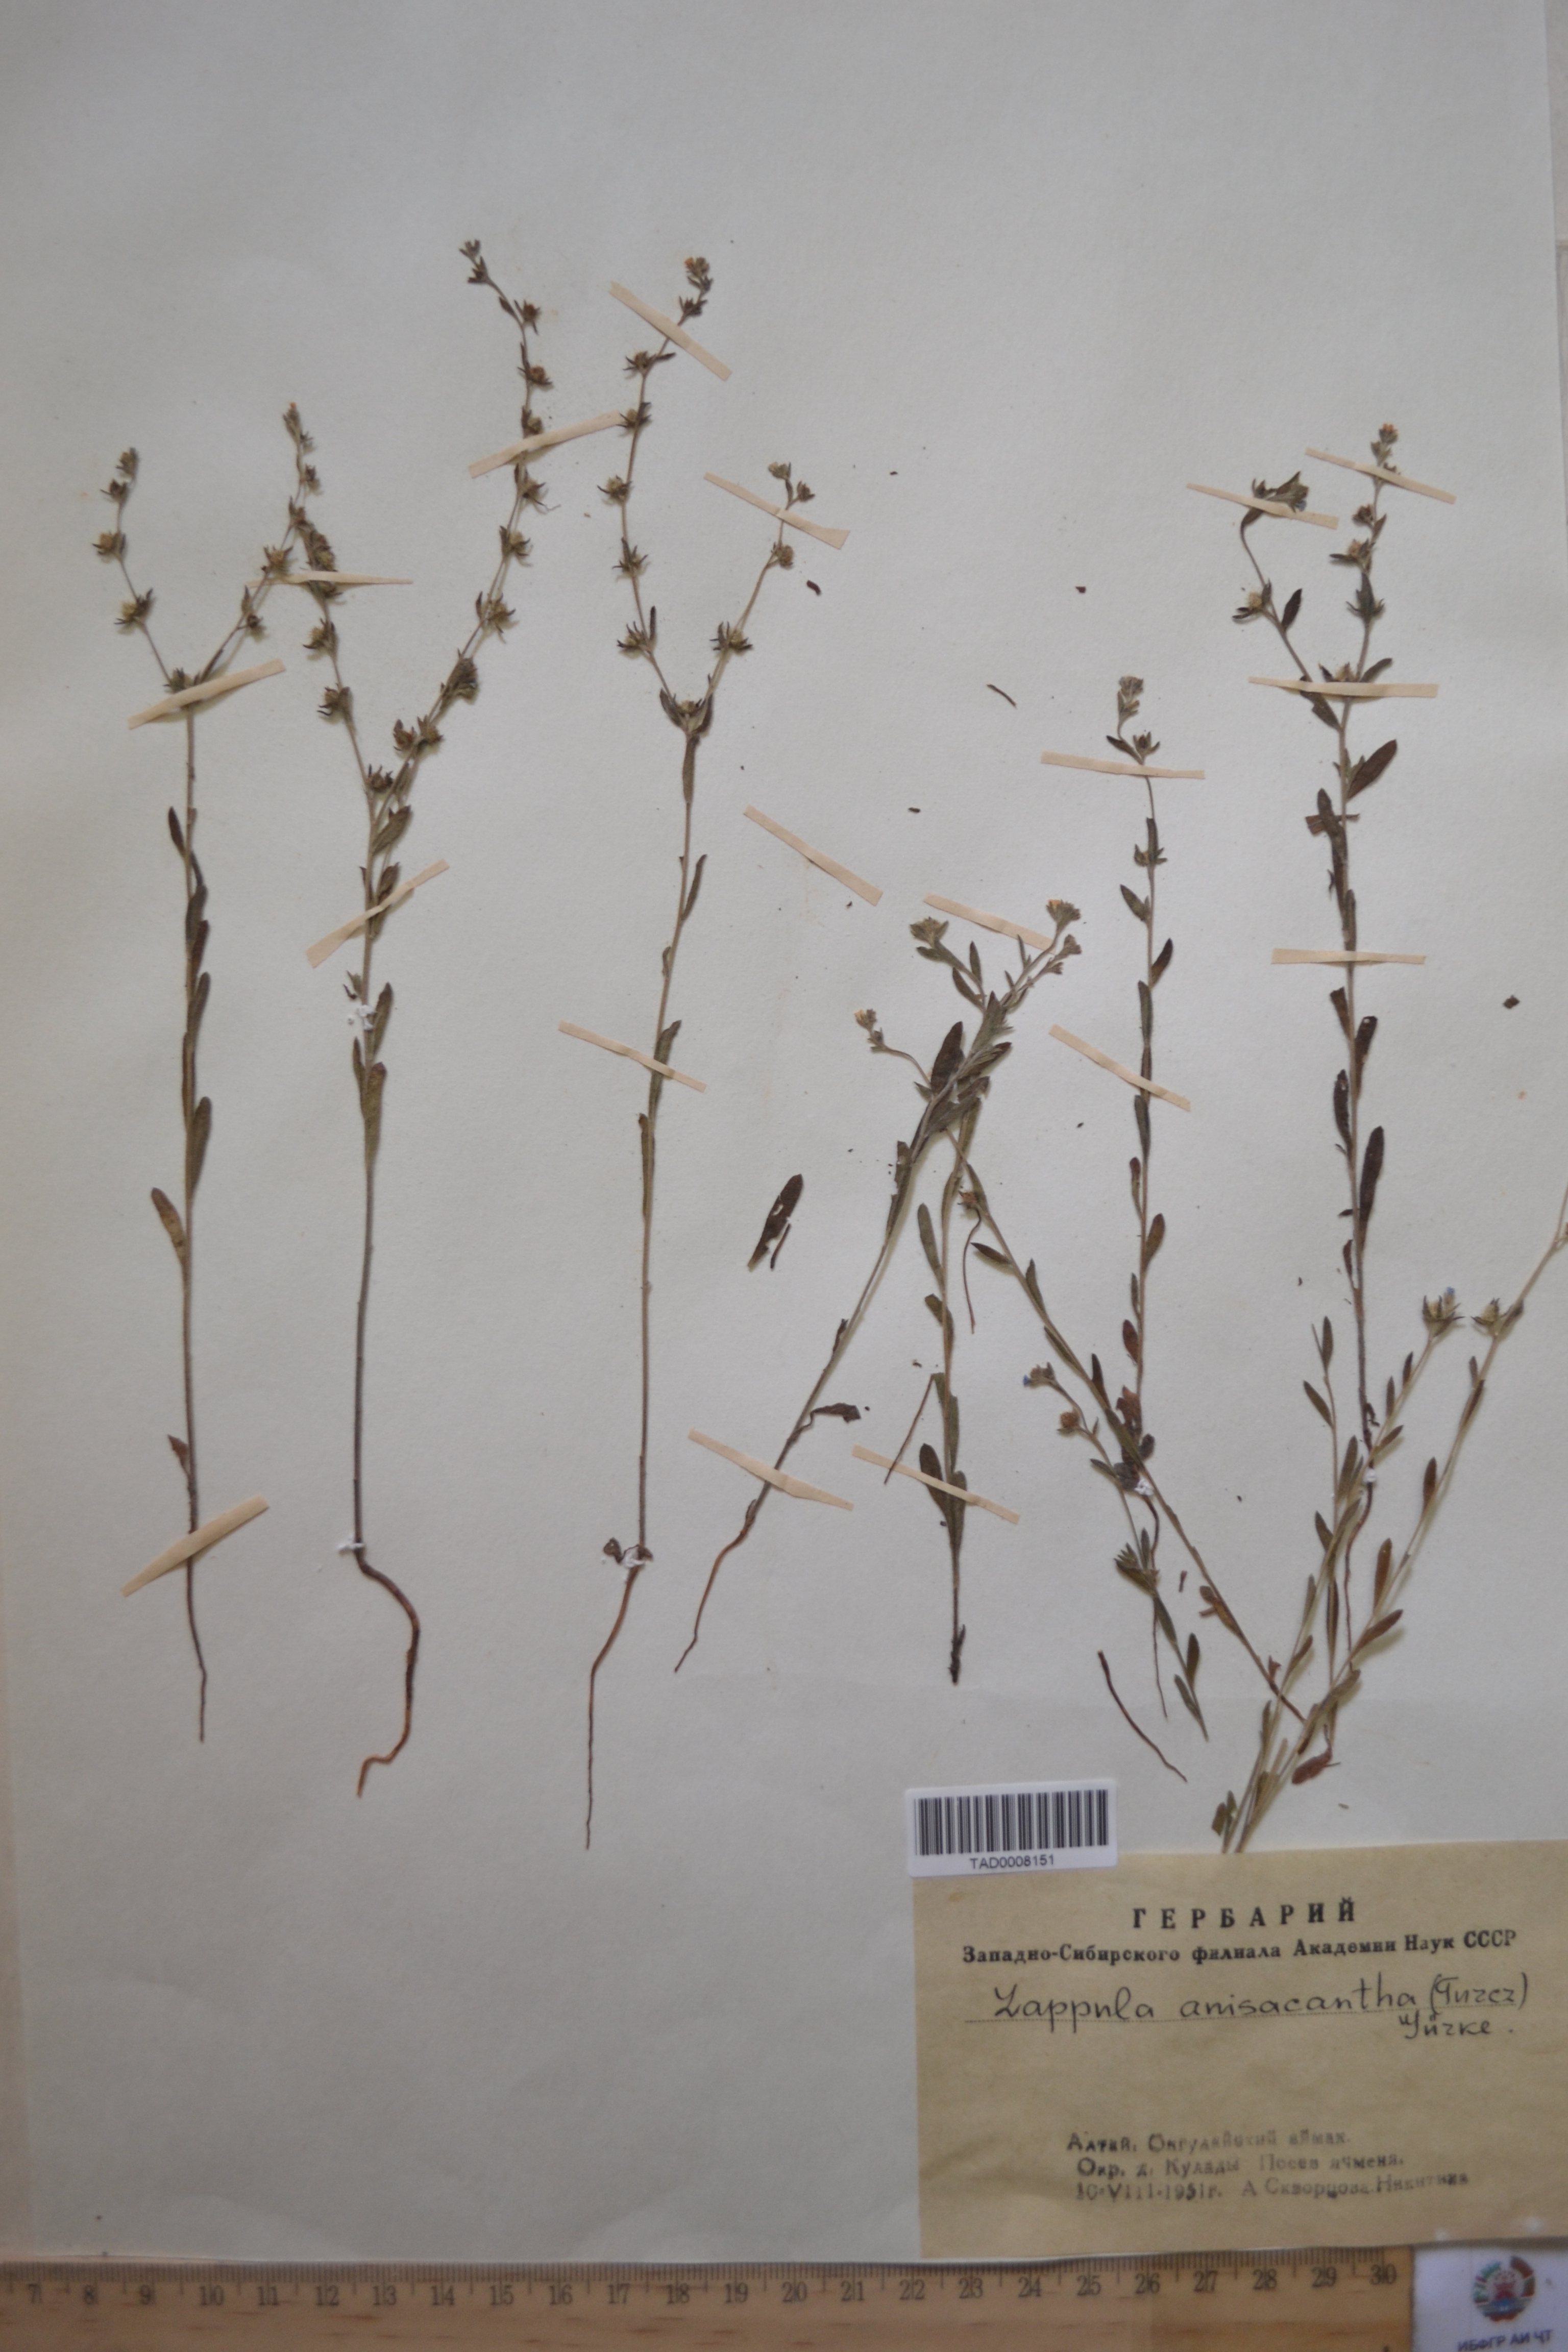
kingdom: Plantae
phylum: Tracheophyta
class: Magnoliopsida
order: Boraginales
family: Boraginaceae
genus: Lappula
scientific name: Lappula intermedia
